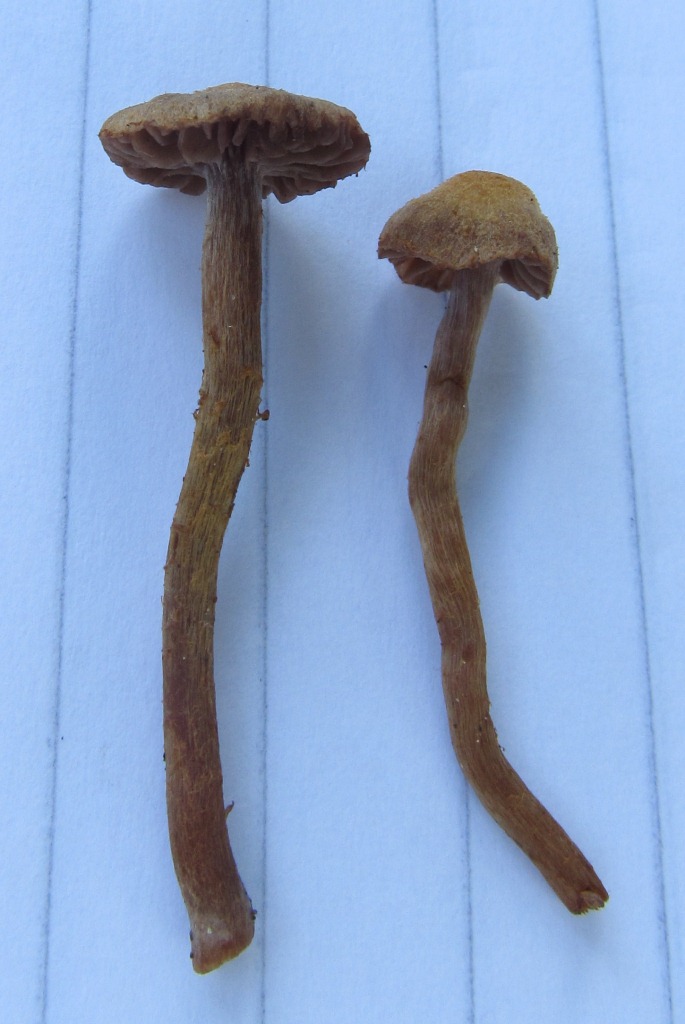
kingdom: Fungi
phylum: Basidiomycota
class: Agaricomycetes
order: Agaricales
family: Cortinariaceae
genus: Cortinarius
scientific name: Cortinarius helvelloides
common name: fjernbladet slørhat
